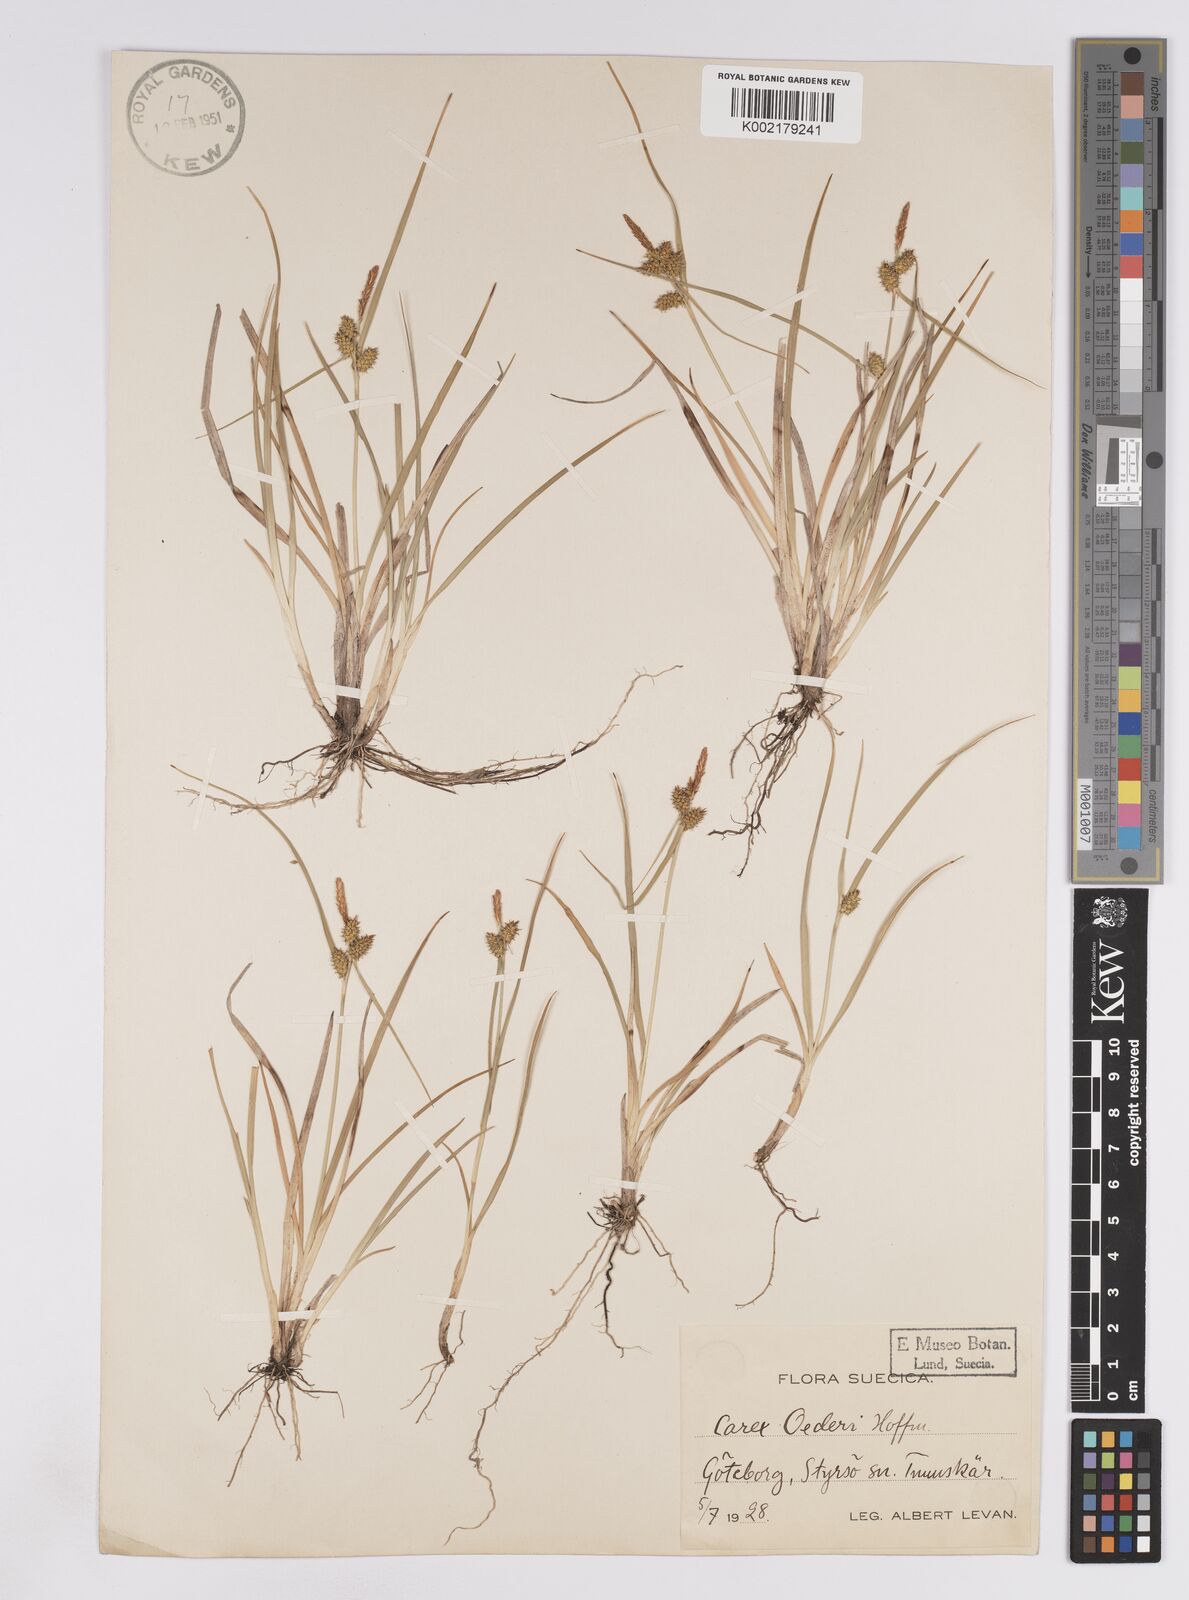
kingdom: Plantae
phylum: Tracheophyta
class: Liliopsida
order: Poales
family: Cyperaceae
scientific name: Cyperaceae
